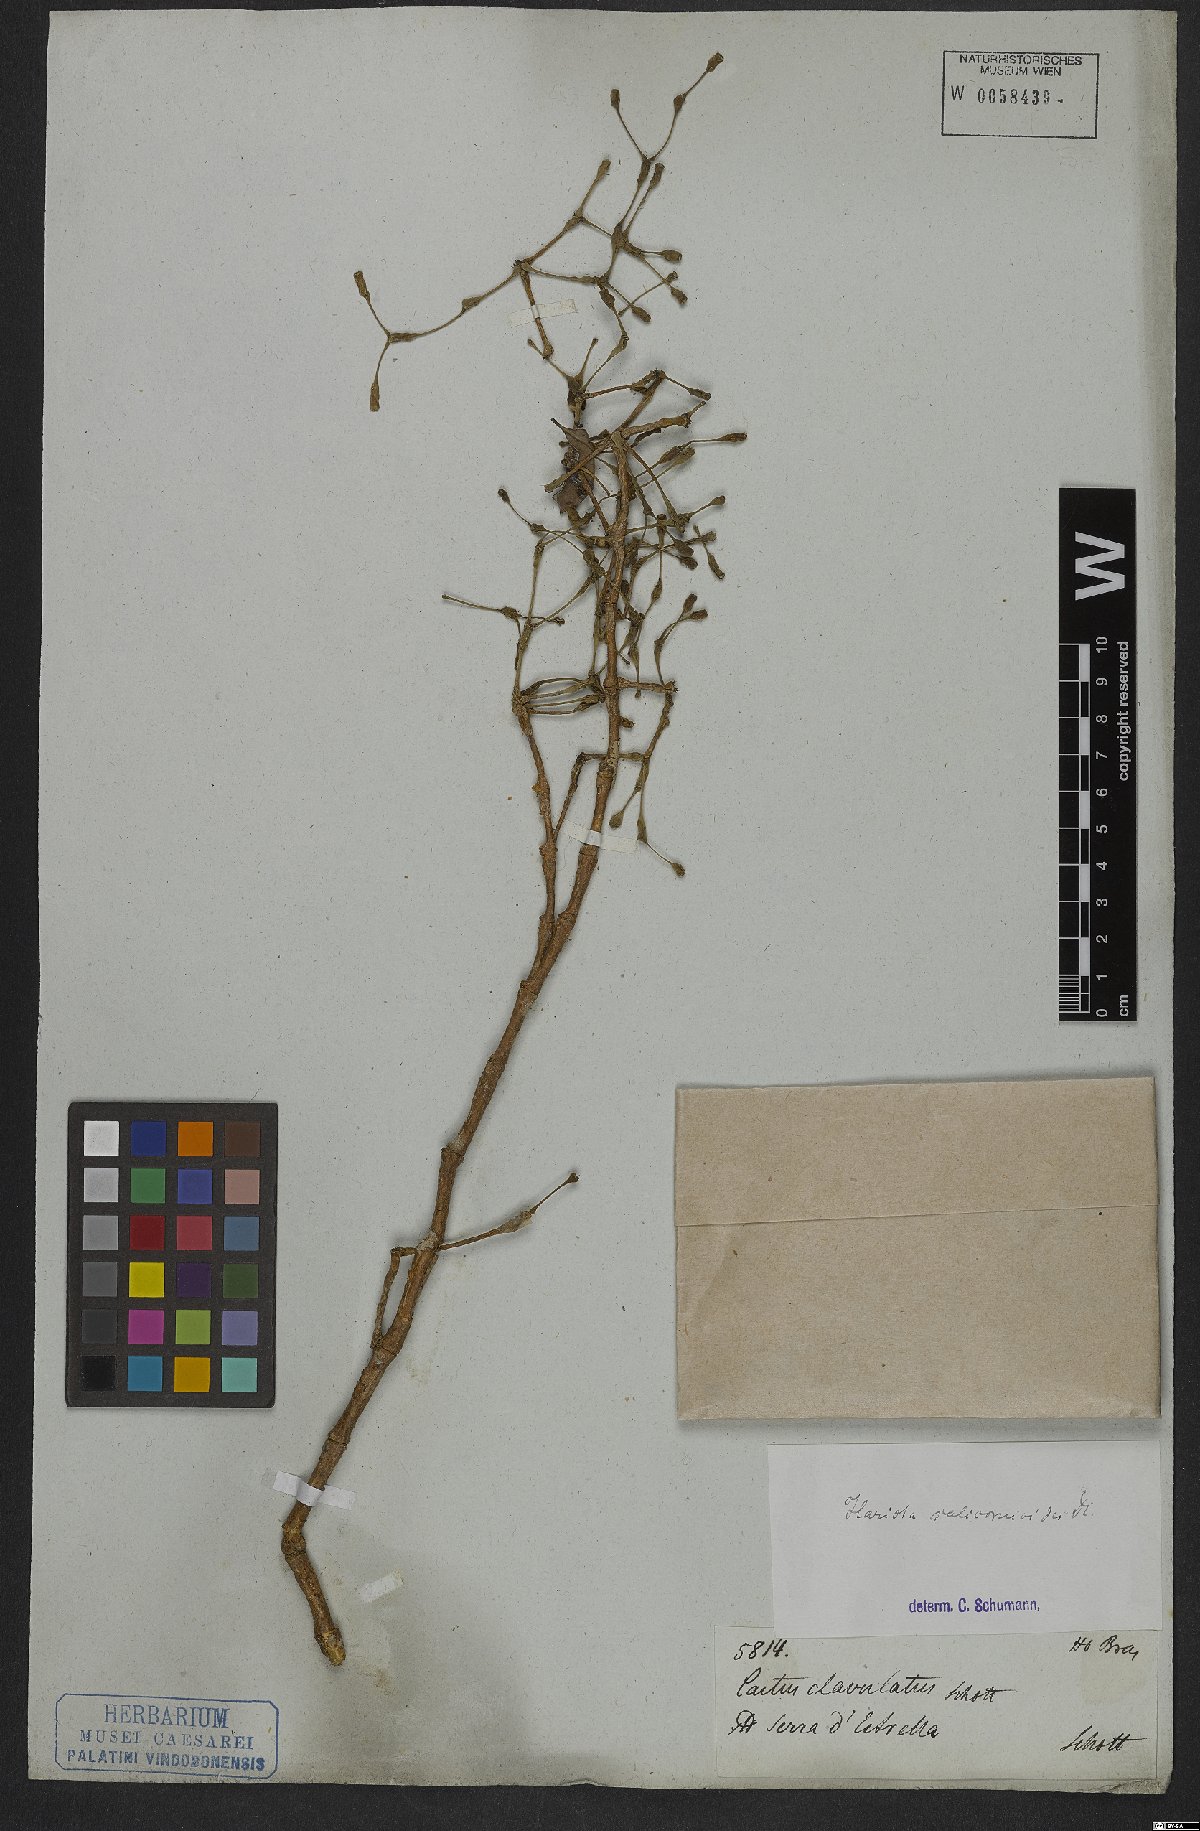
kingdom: Plantae
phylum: Tracheophyta
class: Magnoliopsida
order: Caryophyllales
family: Cactaceae
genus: Hatiora
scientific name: Hatiora salicornioides
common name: Dancing-bones
